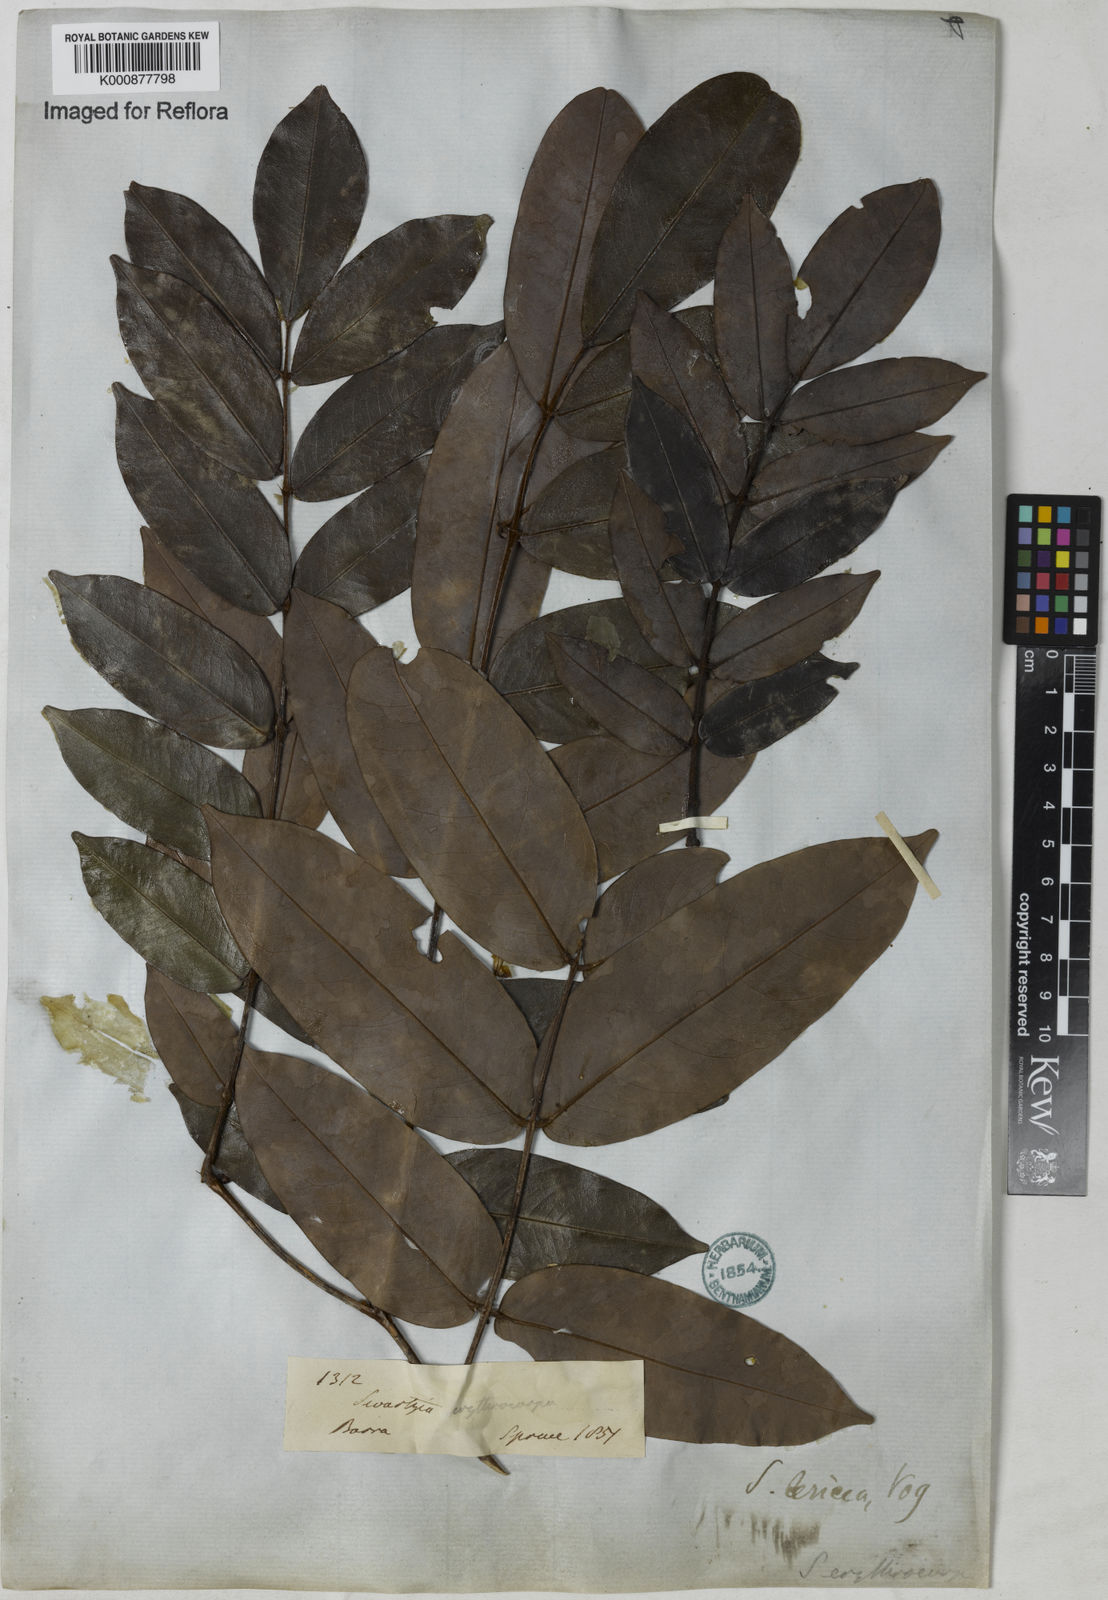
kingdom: Plantae
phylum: Tracheophyta
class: Magnoliopsida
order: Fabales
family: Fabaceae
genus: Swartzia
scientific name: Swartzia sericea
